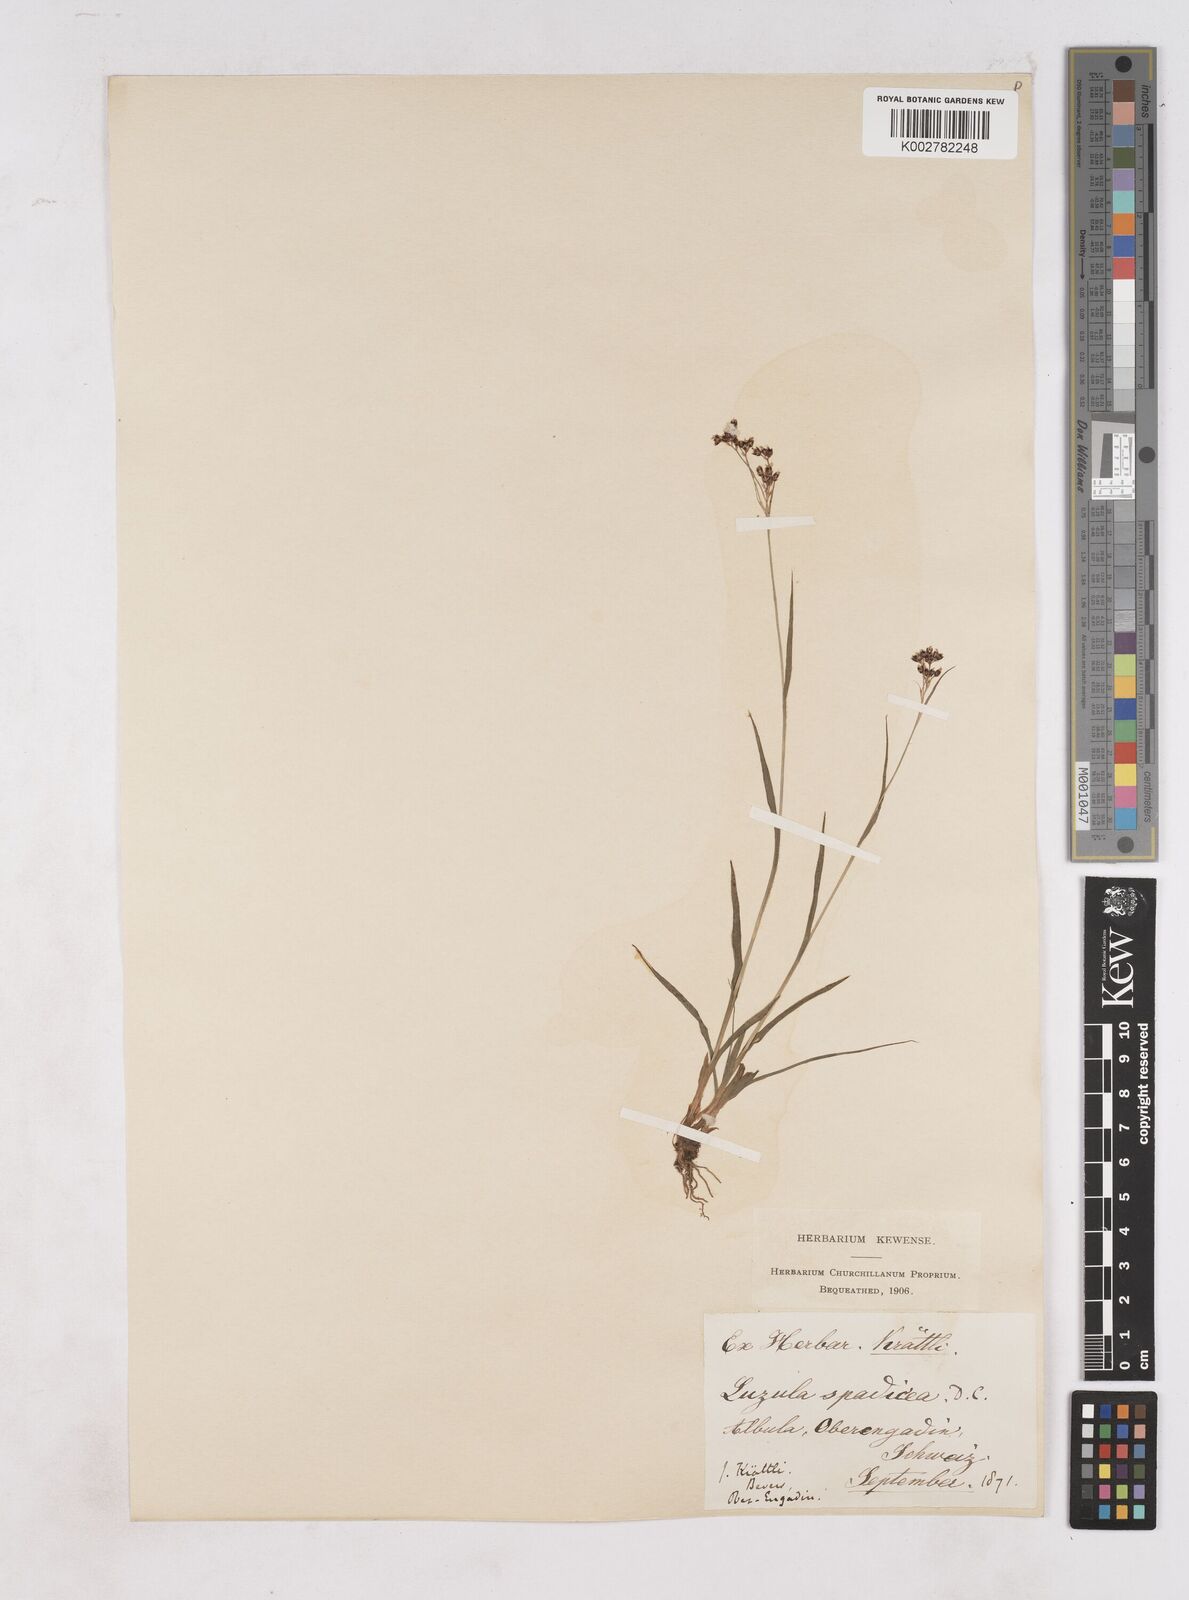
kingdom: Plantae
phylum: Tracheophyta
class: Liliopsida
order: Poales
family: Juncaceae
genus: Luzula
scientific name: Luzula alpinopilosa
